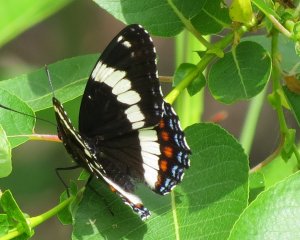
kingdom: Animalia
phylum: Arthropoda
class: Insecta
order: Lepidoptera
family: Nymphalidae
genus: Limenitis
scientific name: Limenitis arthemis
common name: Red-spotted Admiral
